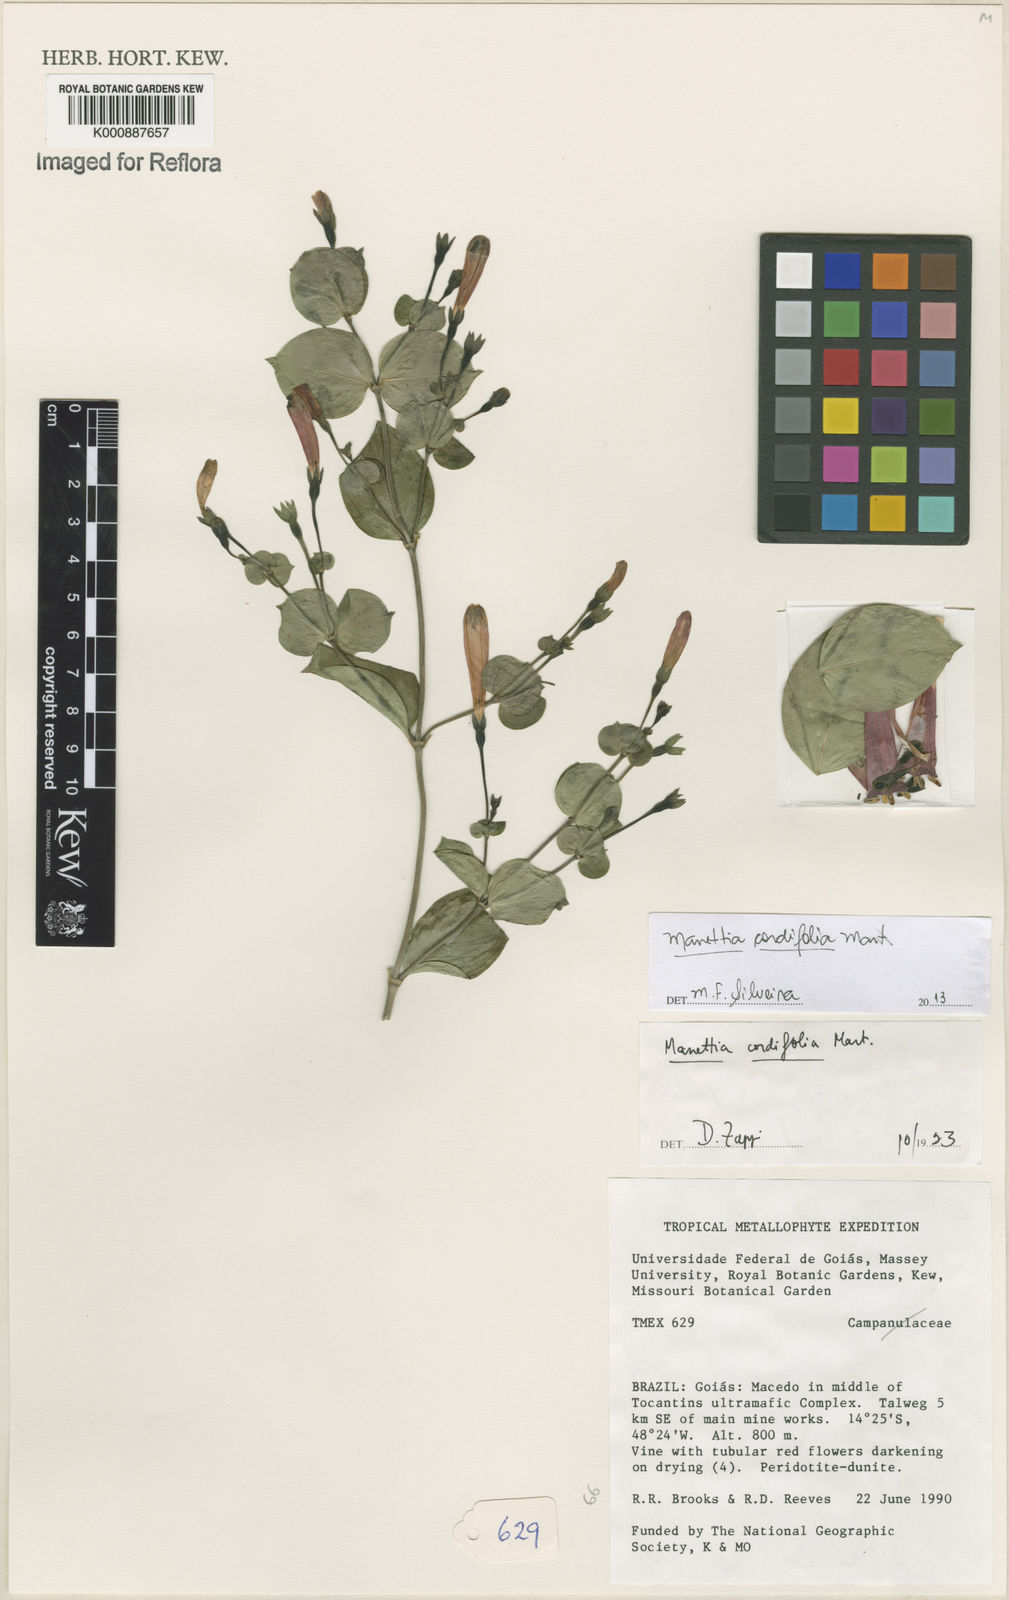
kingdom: Plantae
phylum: Tracheophyta
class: Magnoliopsida
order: Gentianales
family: Rubiaceae
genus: Manettia
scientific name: Manettia cordifolia
